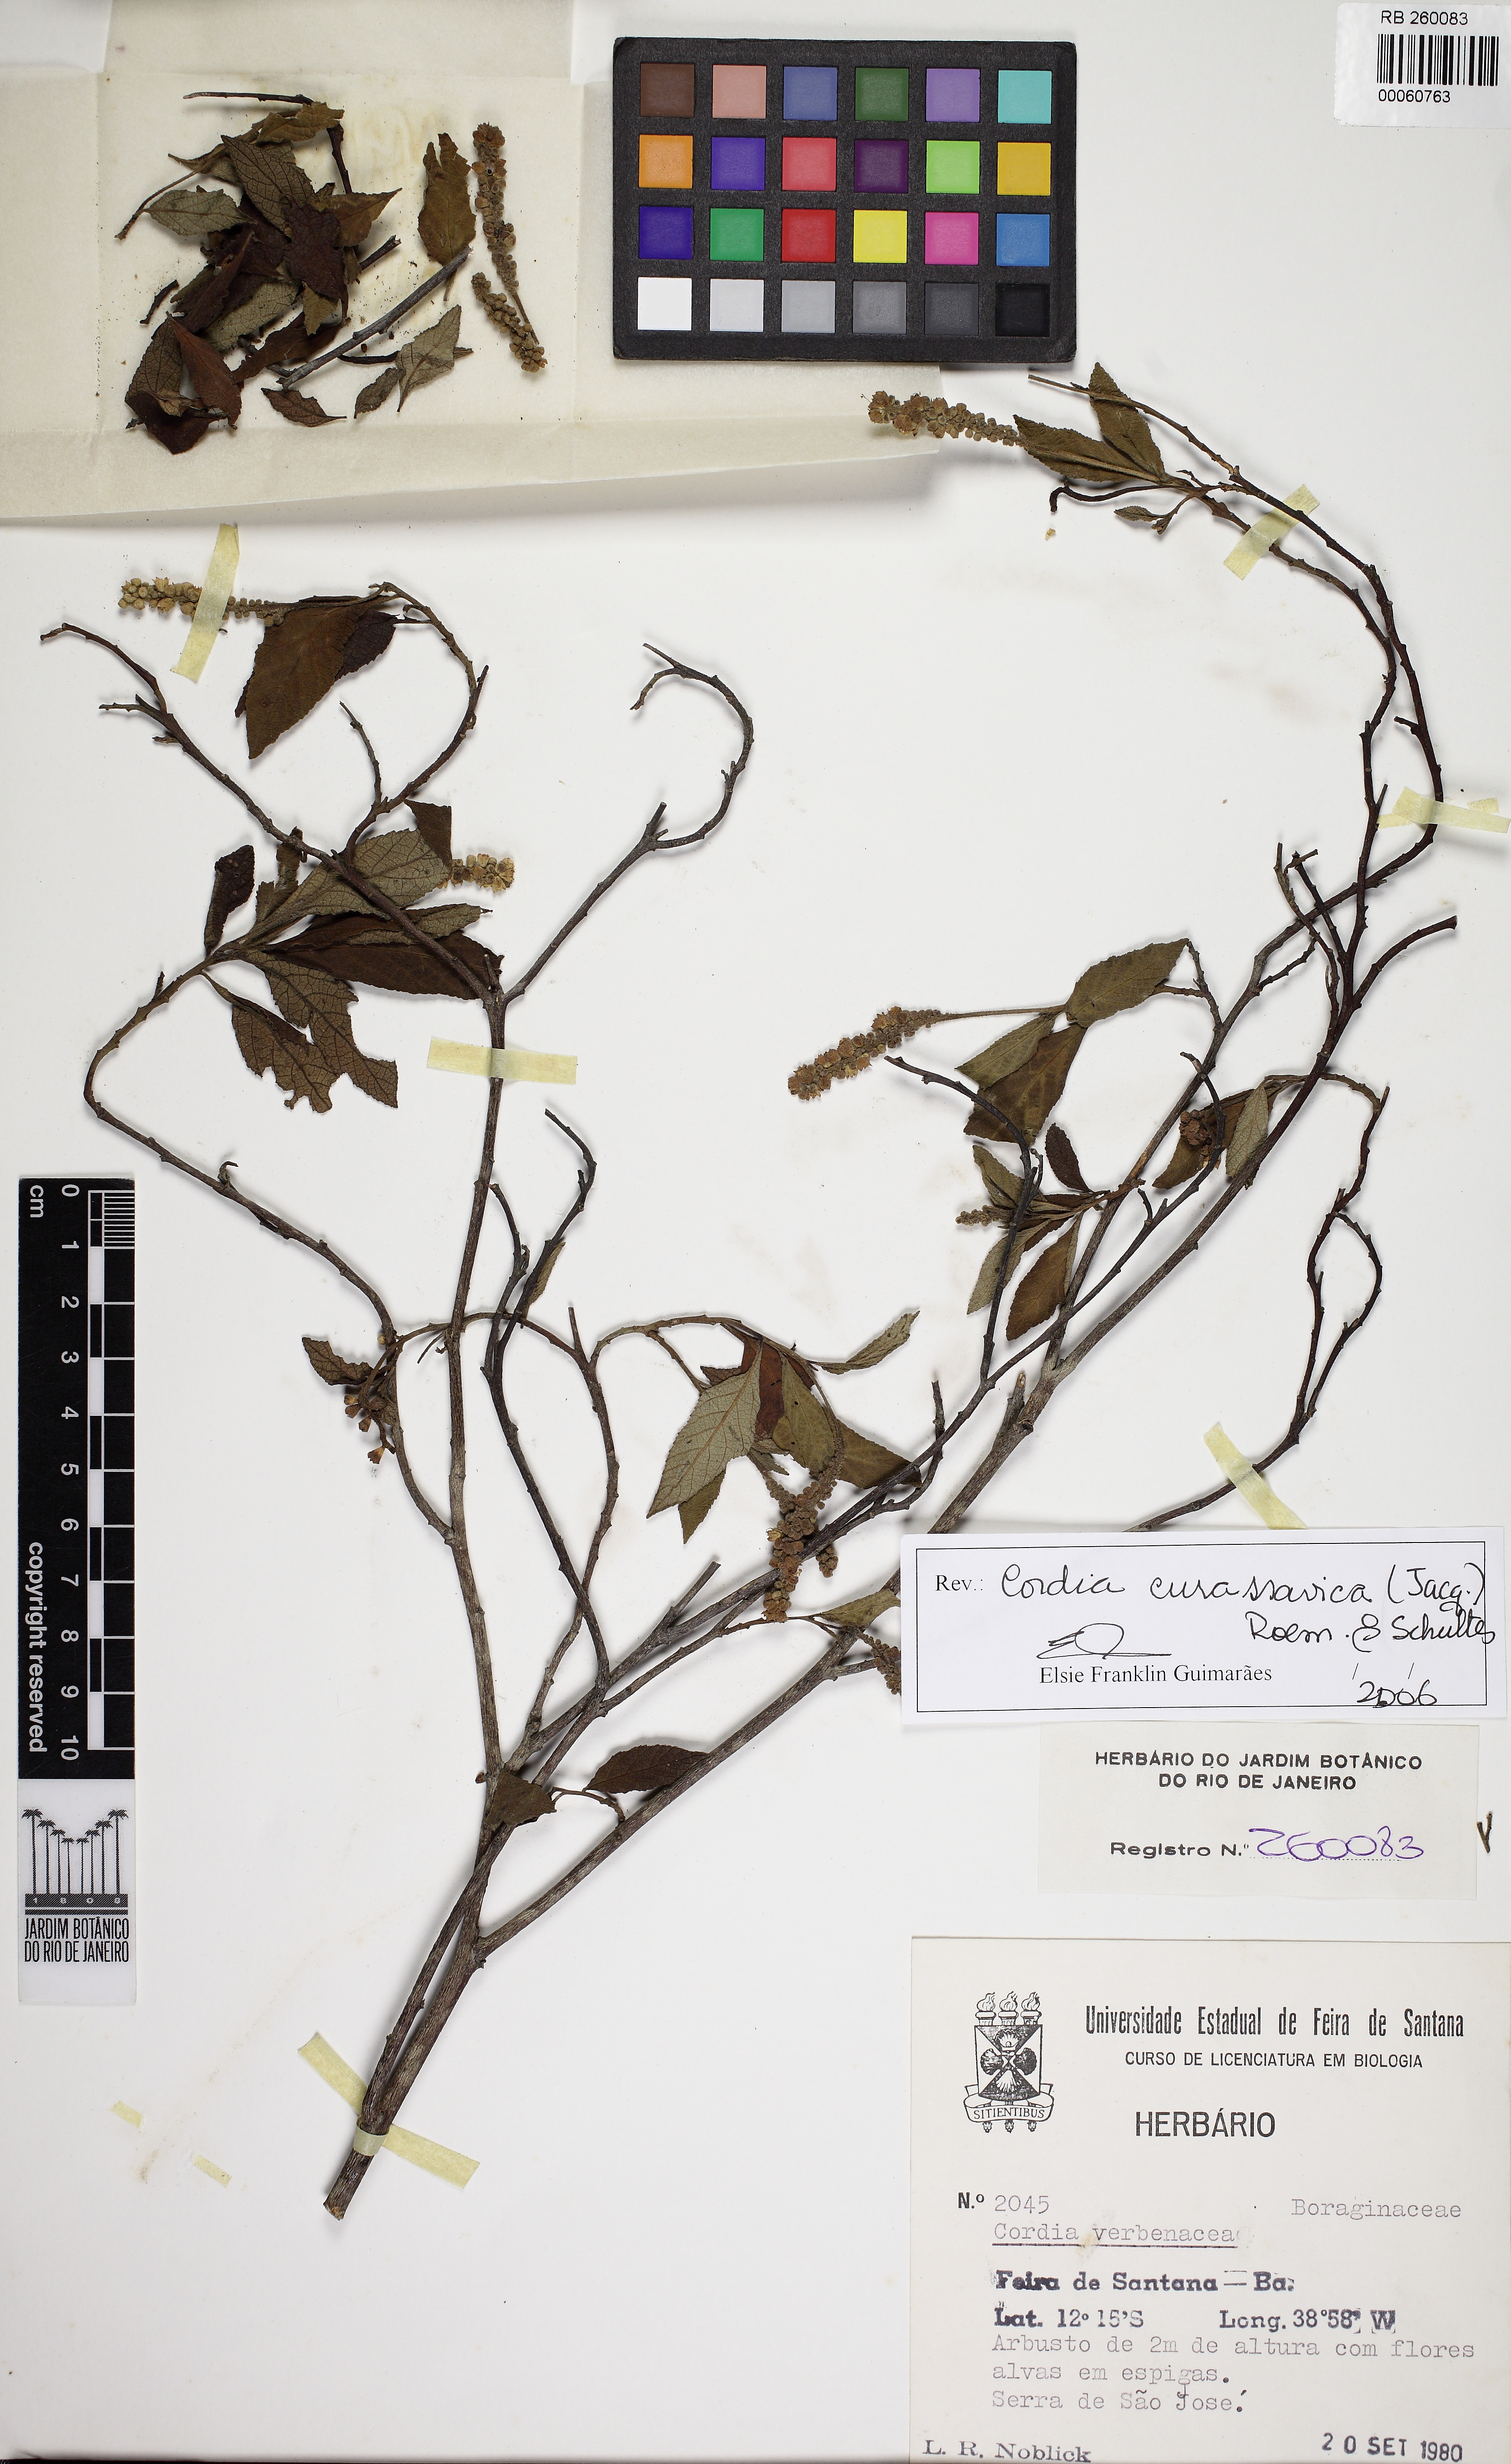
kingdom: Plantae
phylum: Tracheophyta
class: Magnoliopsida
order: Boraginales
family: Cordiaceae
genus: Varronia
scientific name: Varronia curassavica
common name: Black sage
